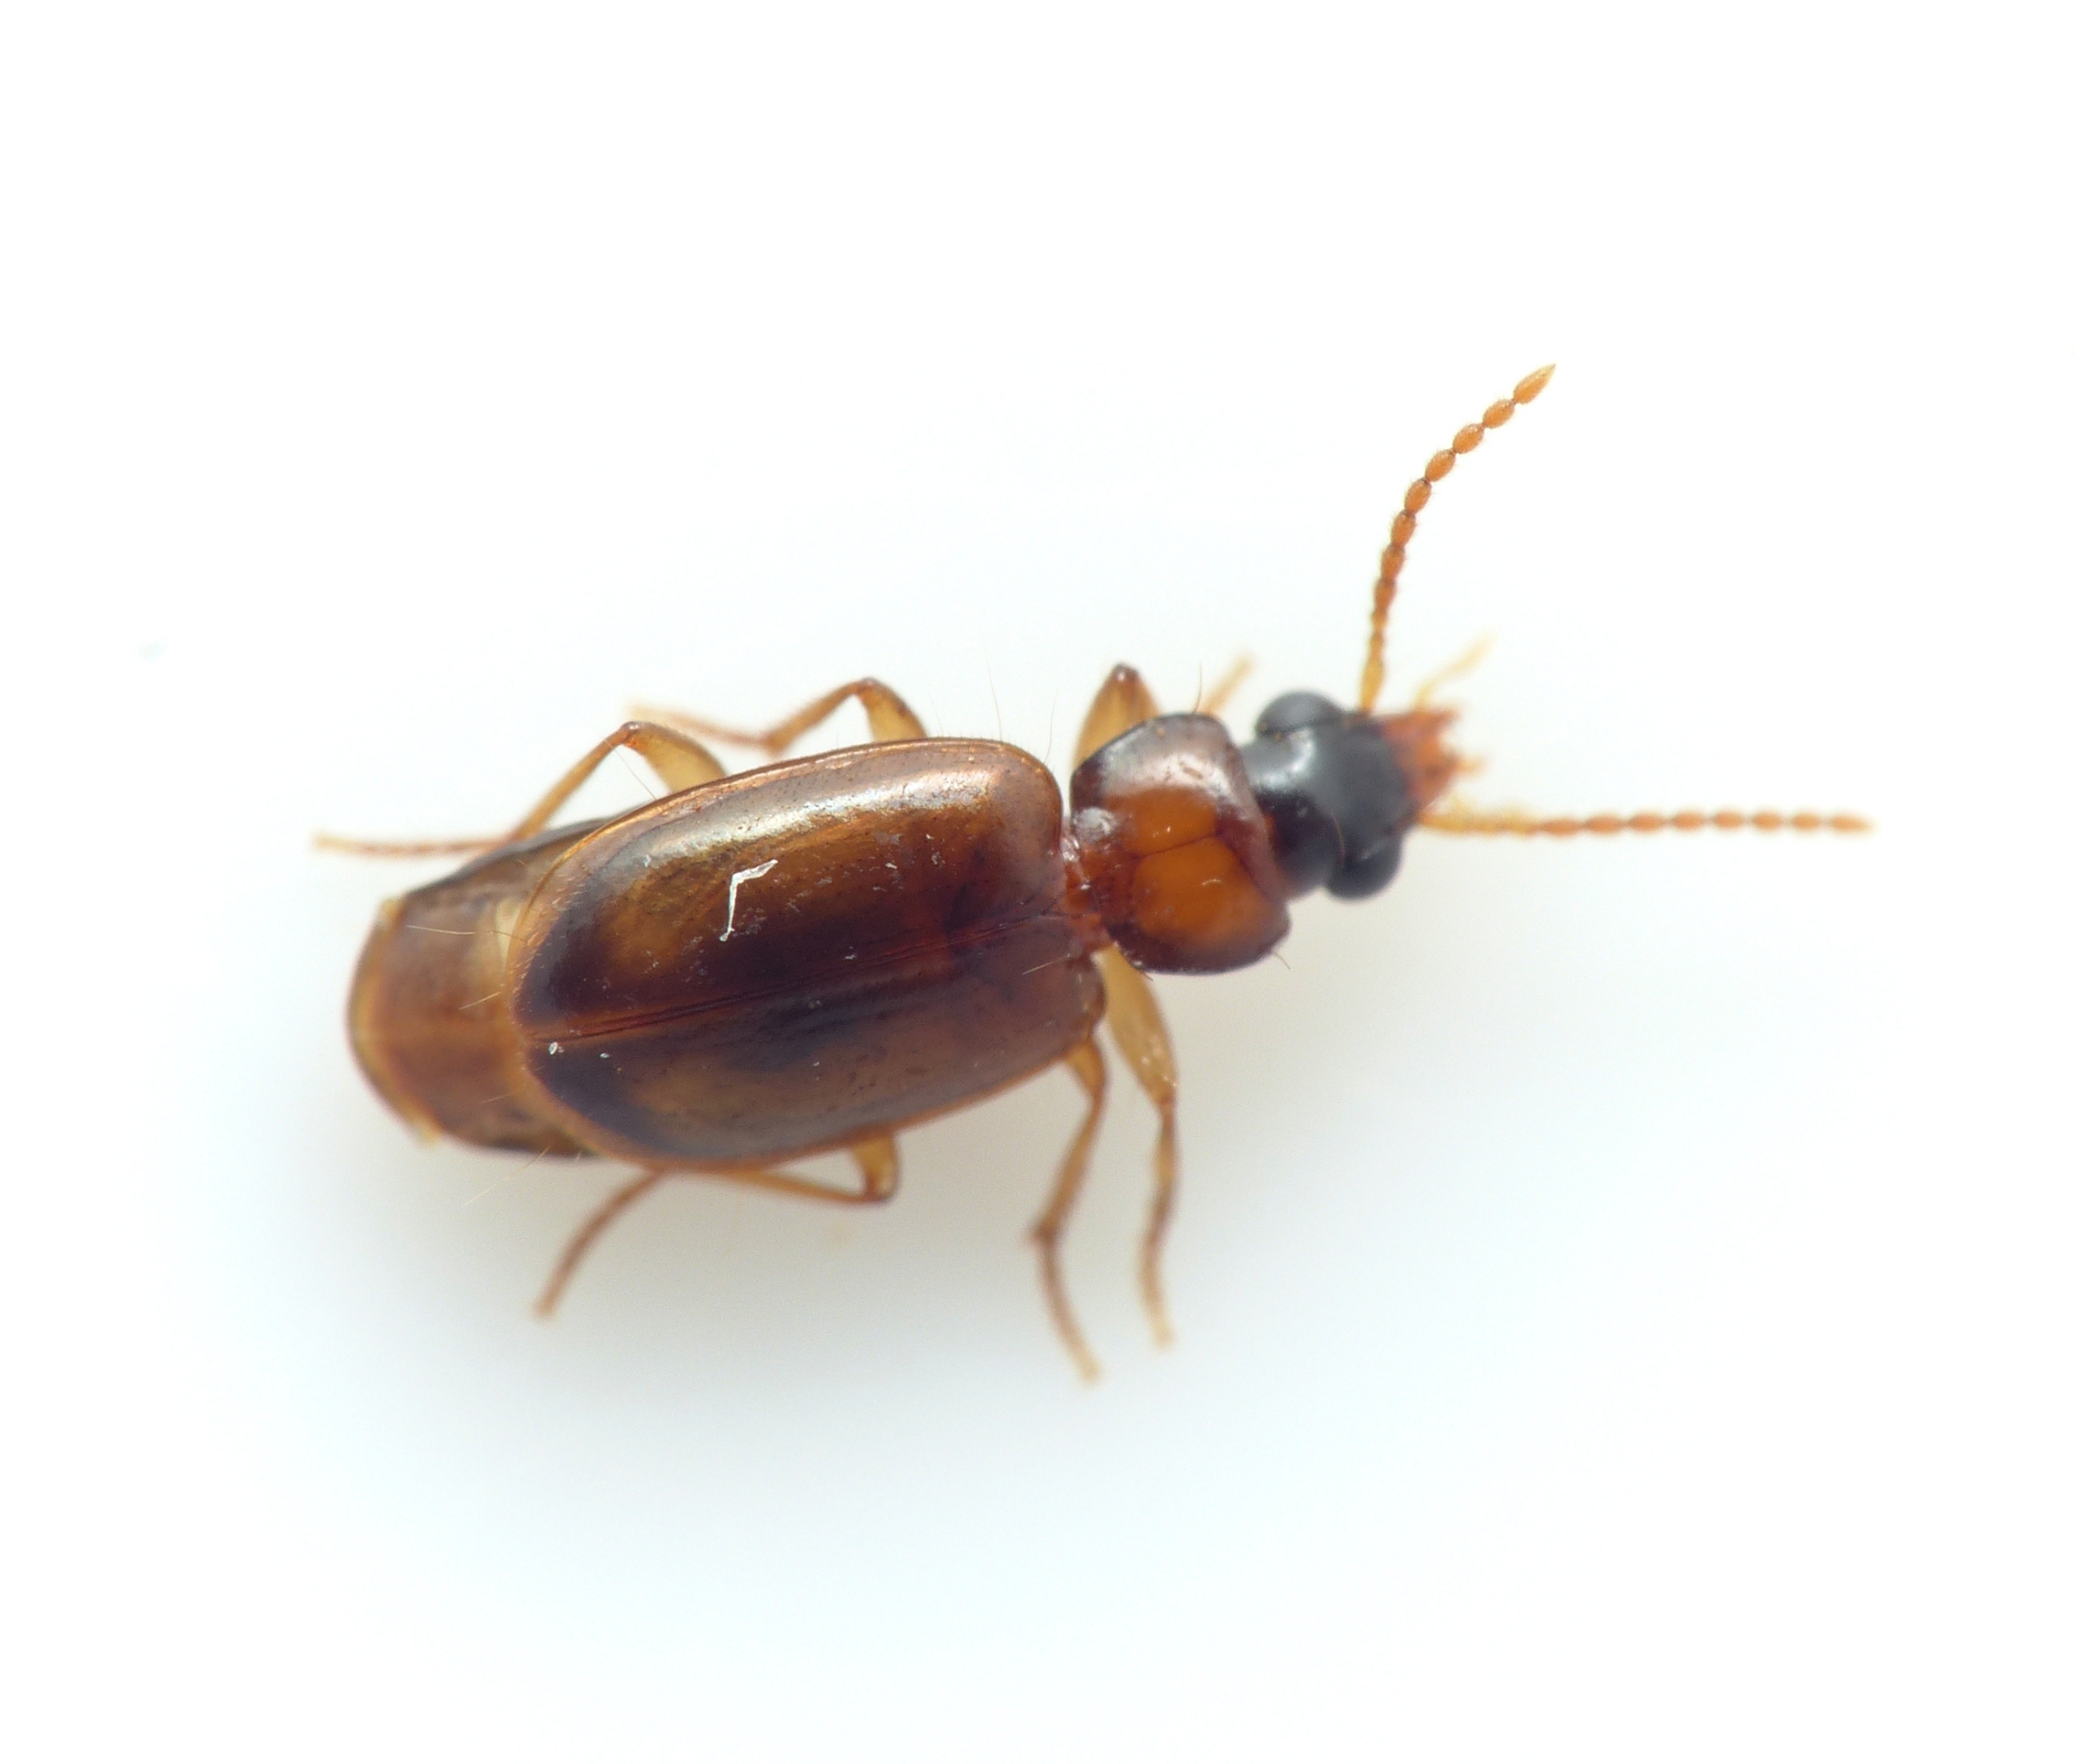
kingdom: Animalia
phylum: Arthropoda
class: Insecta
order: Coleoptera
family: Carabidae
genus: Perigona
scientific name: Perigona nigriceps
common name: Kompostløber
